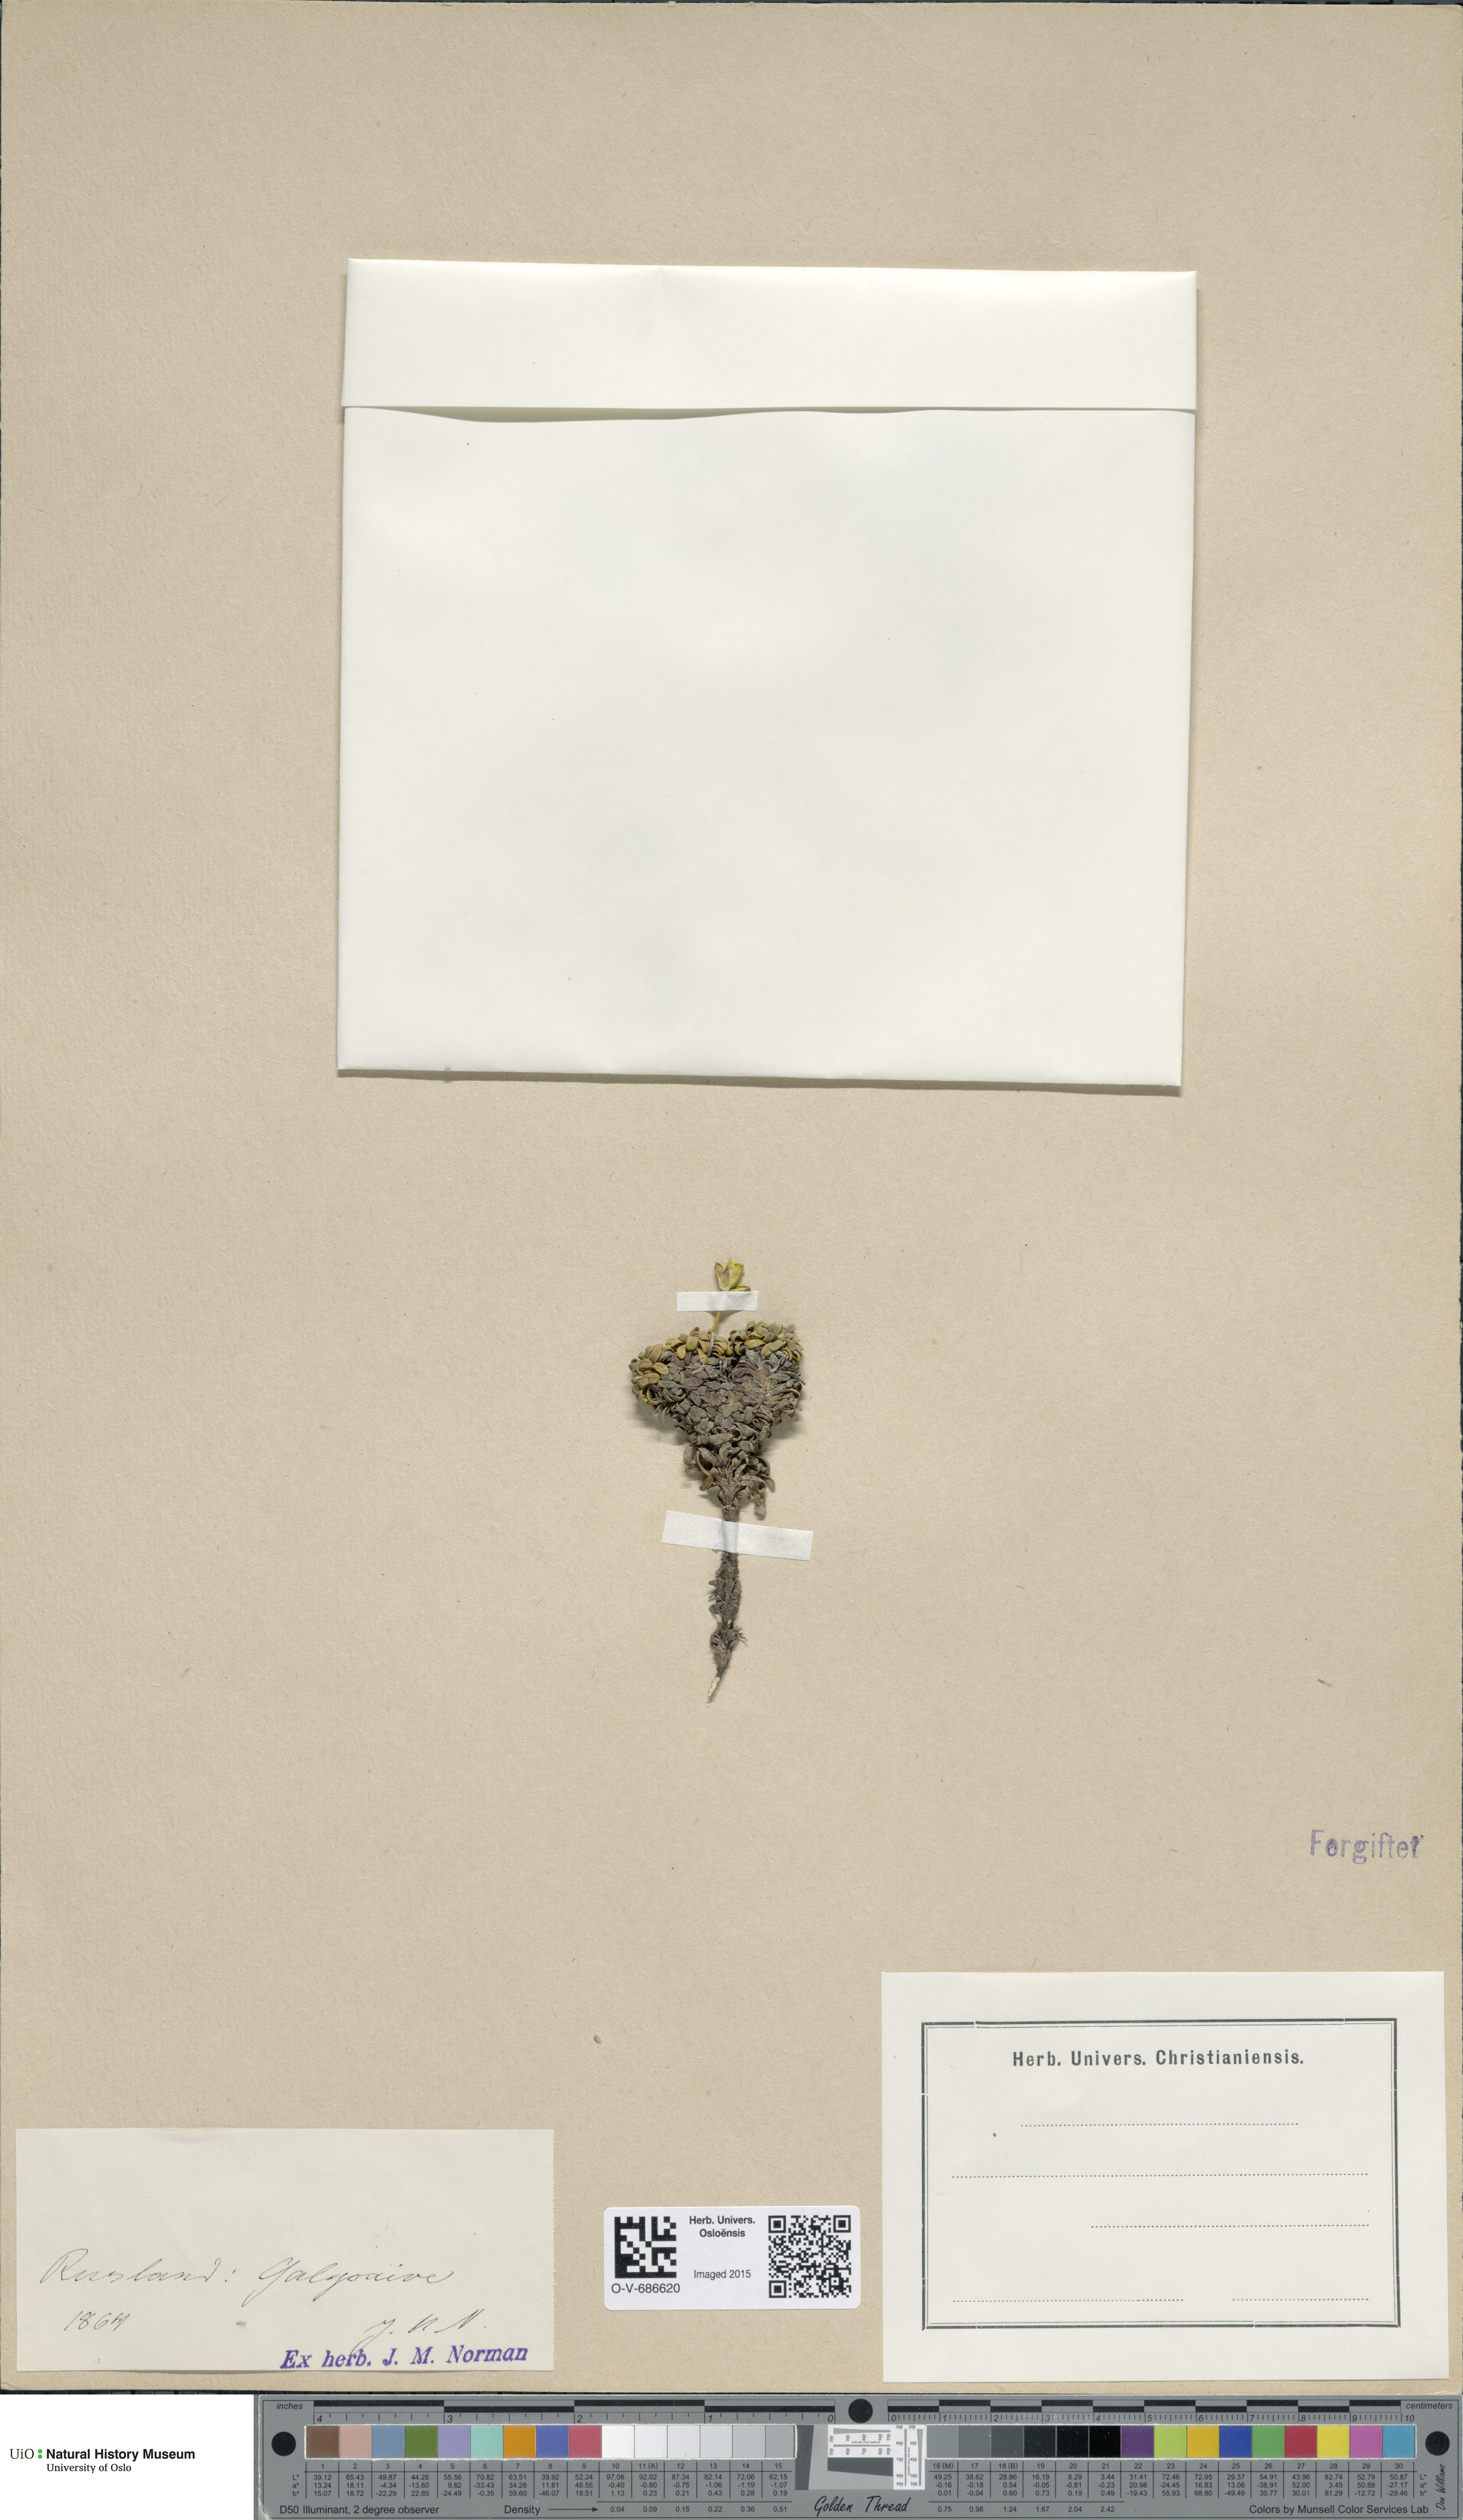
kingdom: Plantae
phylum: Tracheophyta
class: Magnoliopsida
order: Ericales
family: Diapensiaceae
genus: Diapensia
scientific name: Diapensia lapponica
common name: Diapensia
